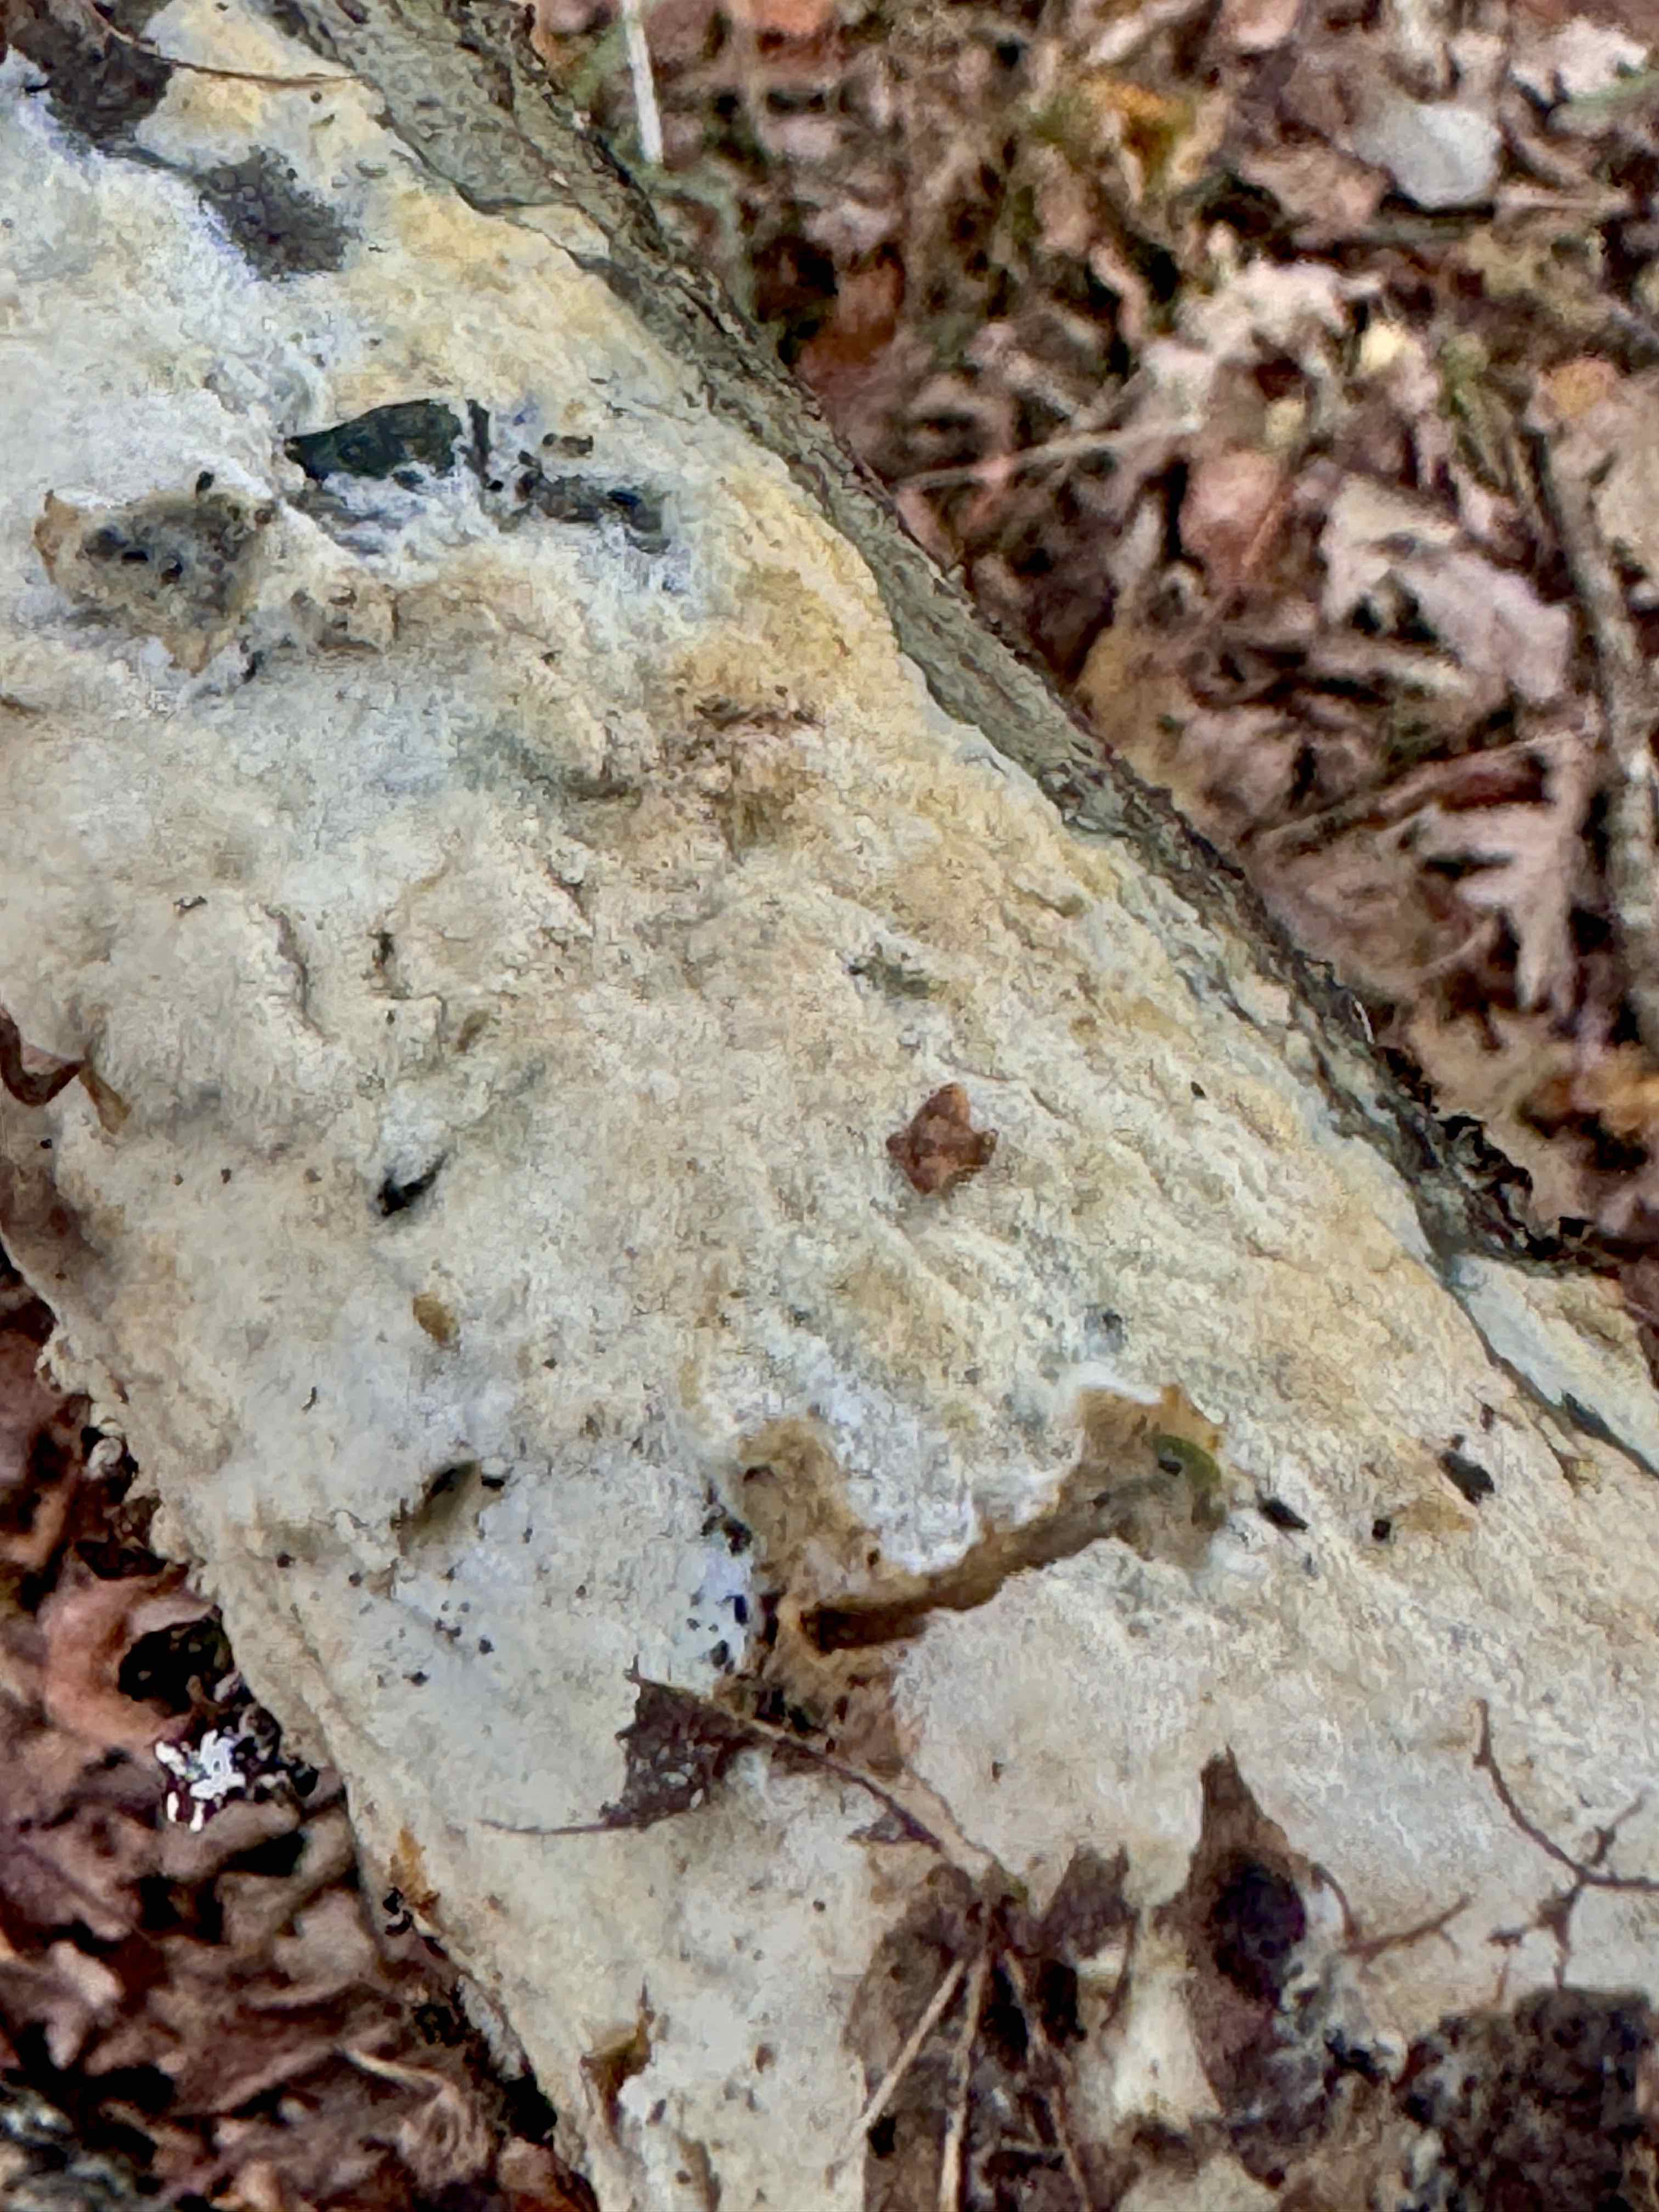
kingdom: Fungi
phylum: Basidiomycota
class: Agaricomycetes
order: Hymenochaetales
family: Schizoporaceae
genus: Xylodon
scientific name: Xylodon subtropicus
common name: labyrint-tandsvamp
